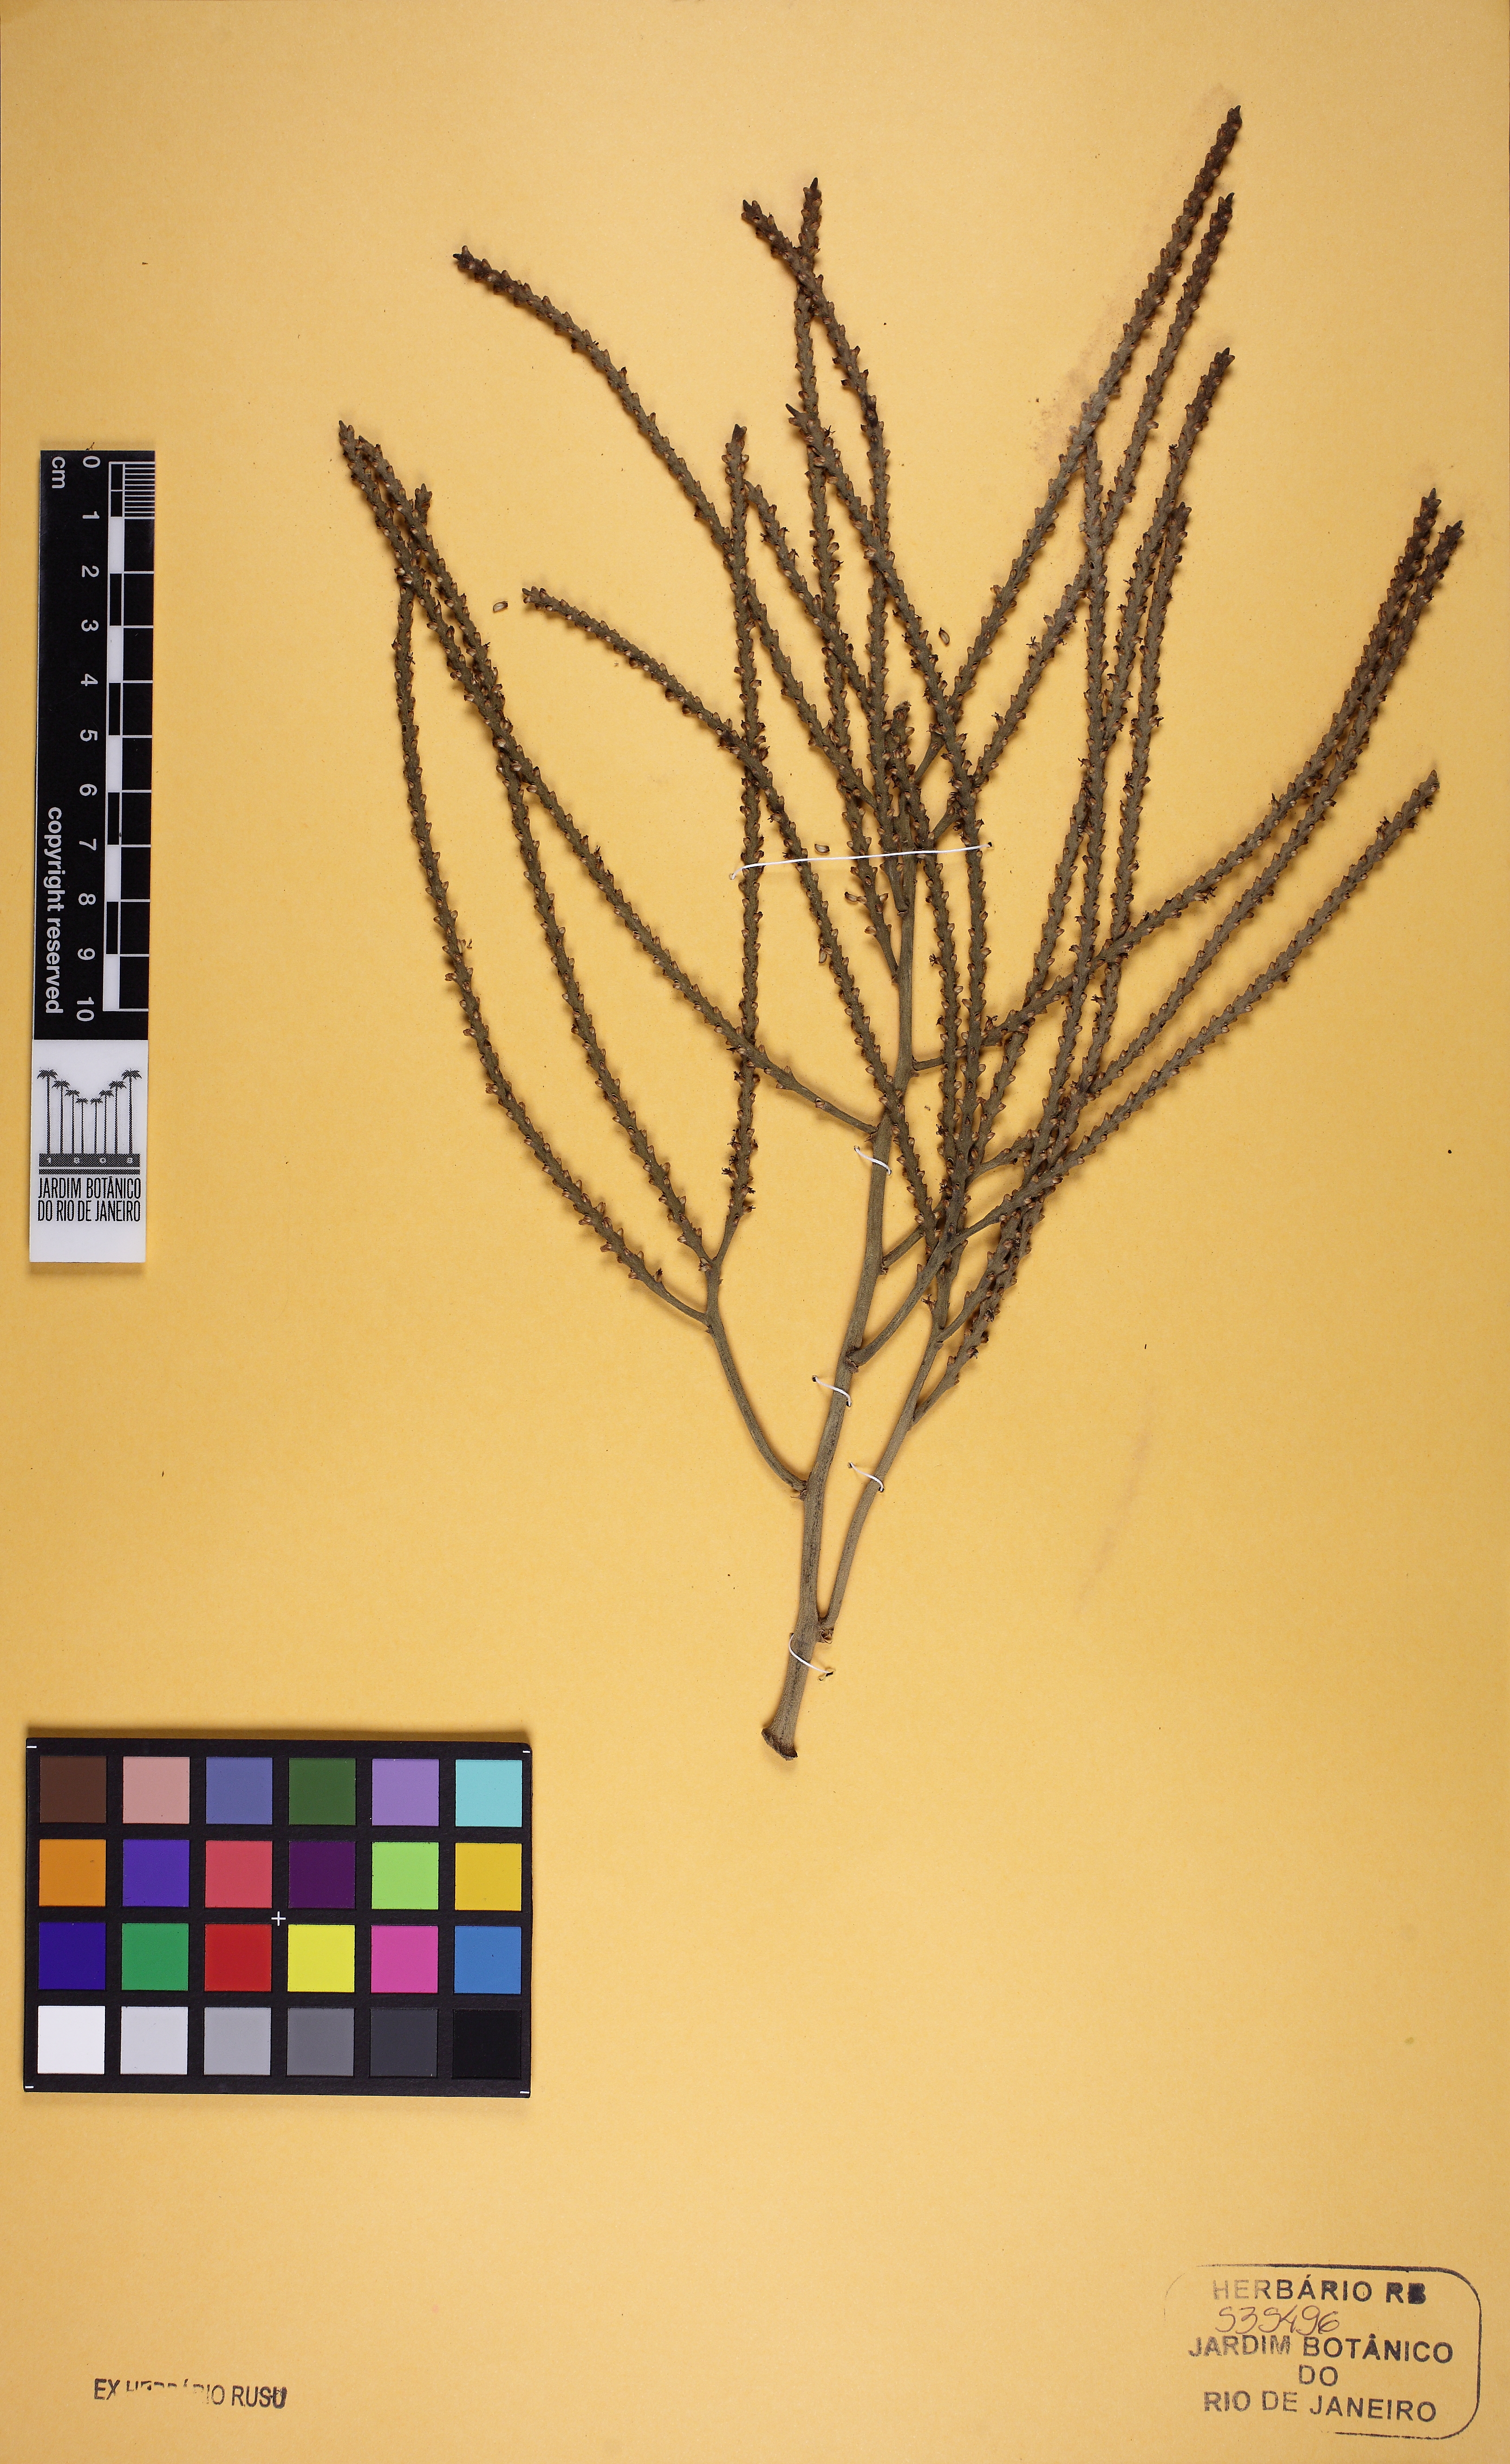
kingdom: Plantae
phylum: Tracheophyta
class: Liliopsida
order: Arecales
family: Arecaceae
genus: Geonoma
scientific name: Geonoma
